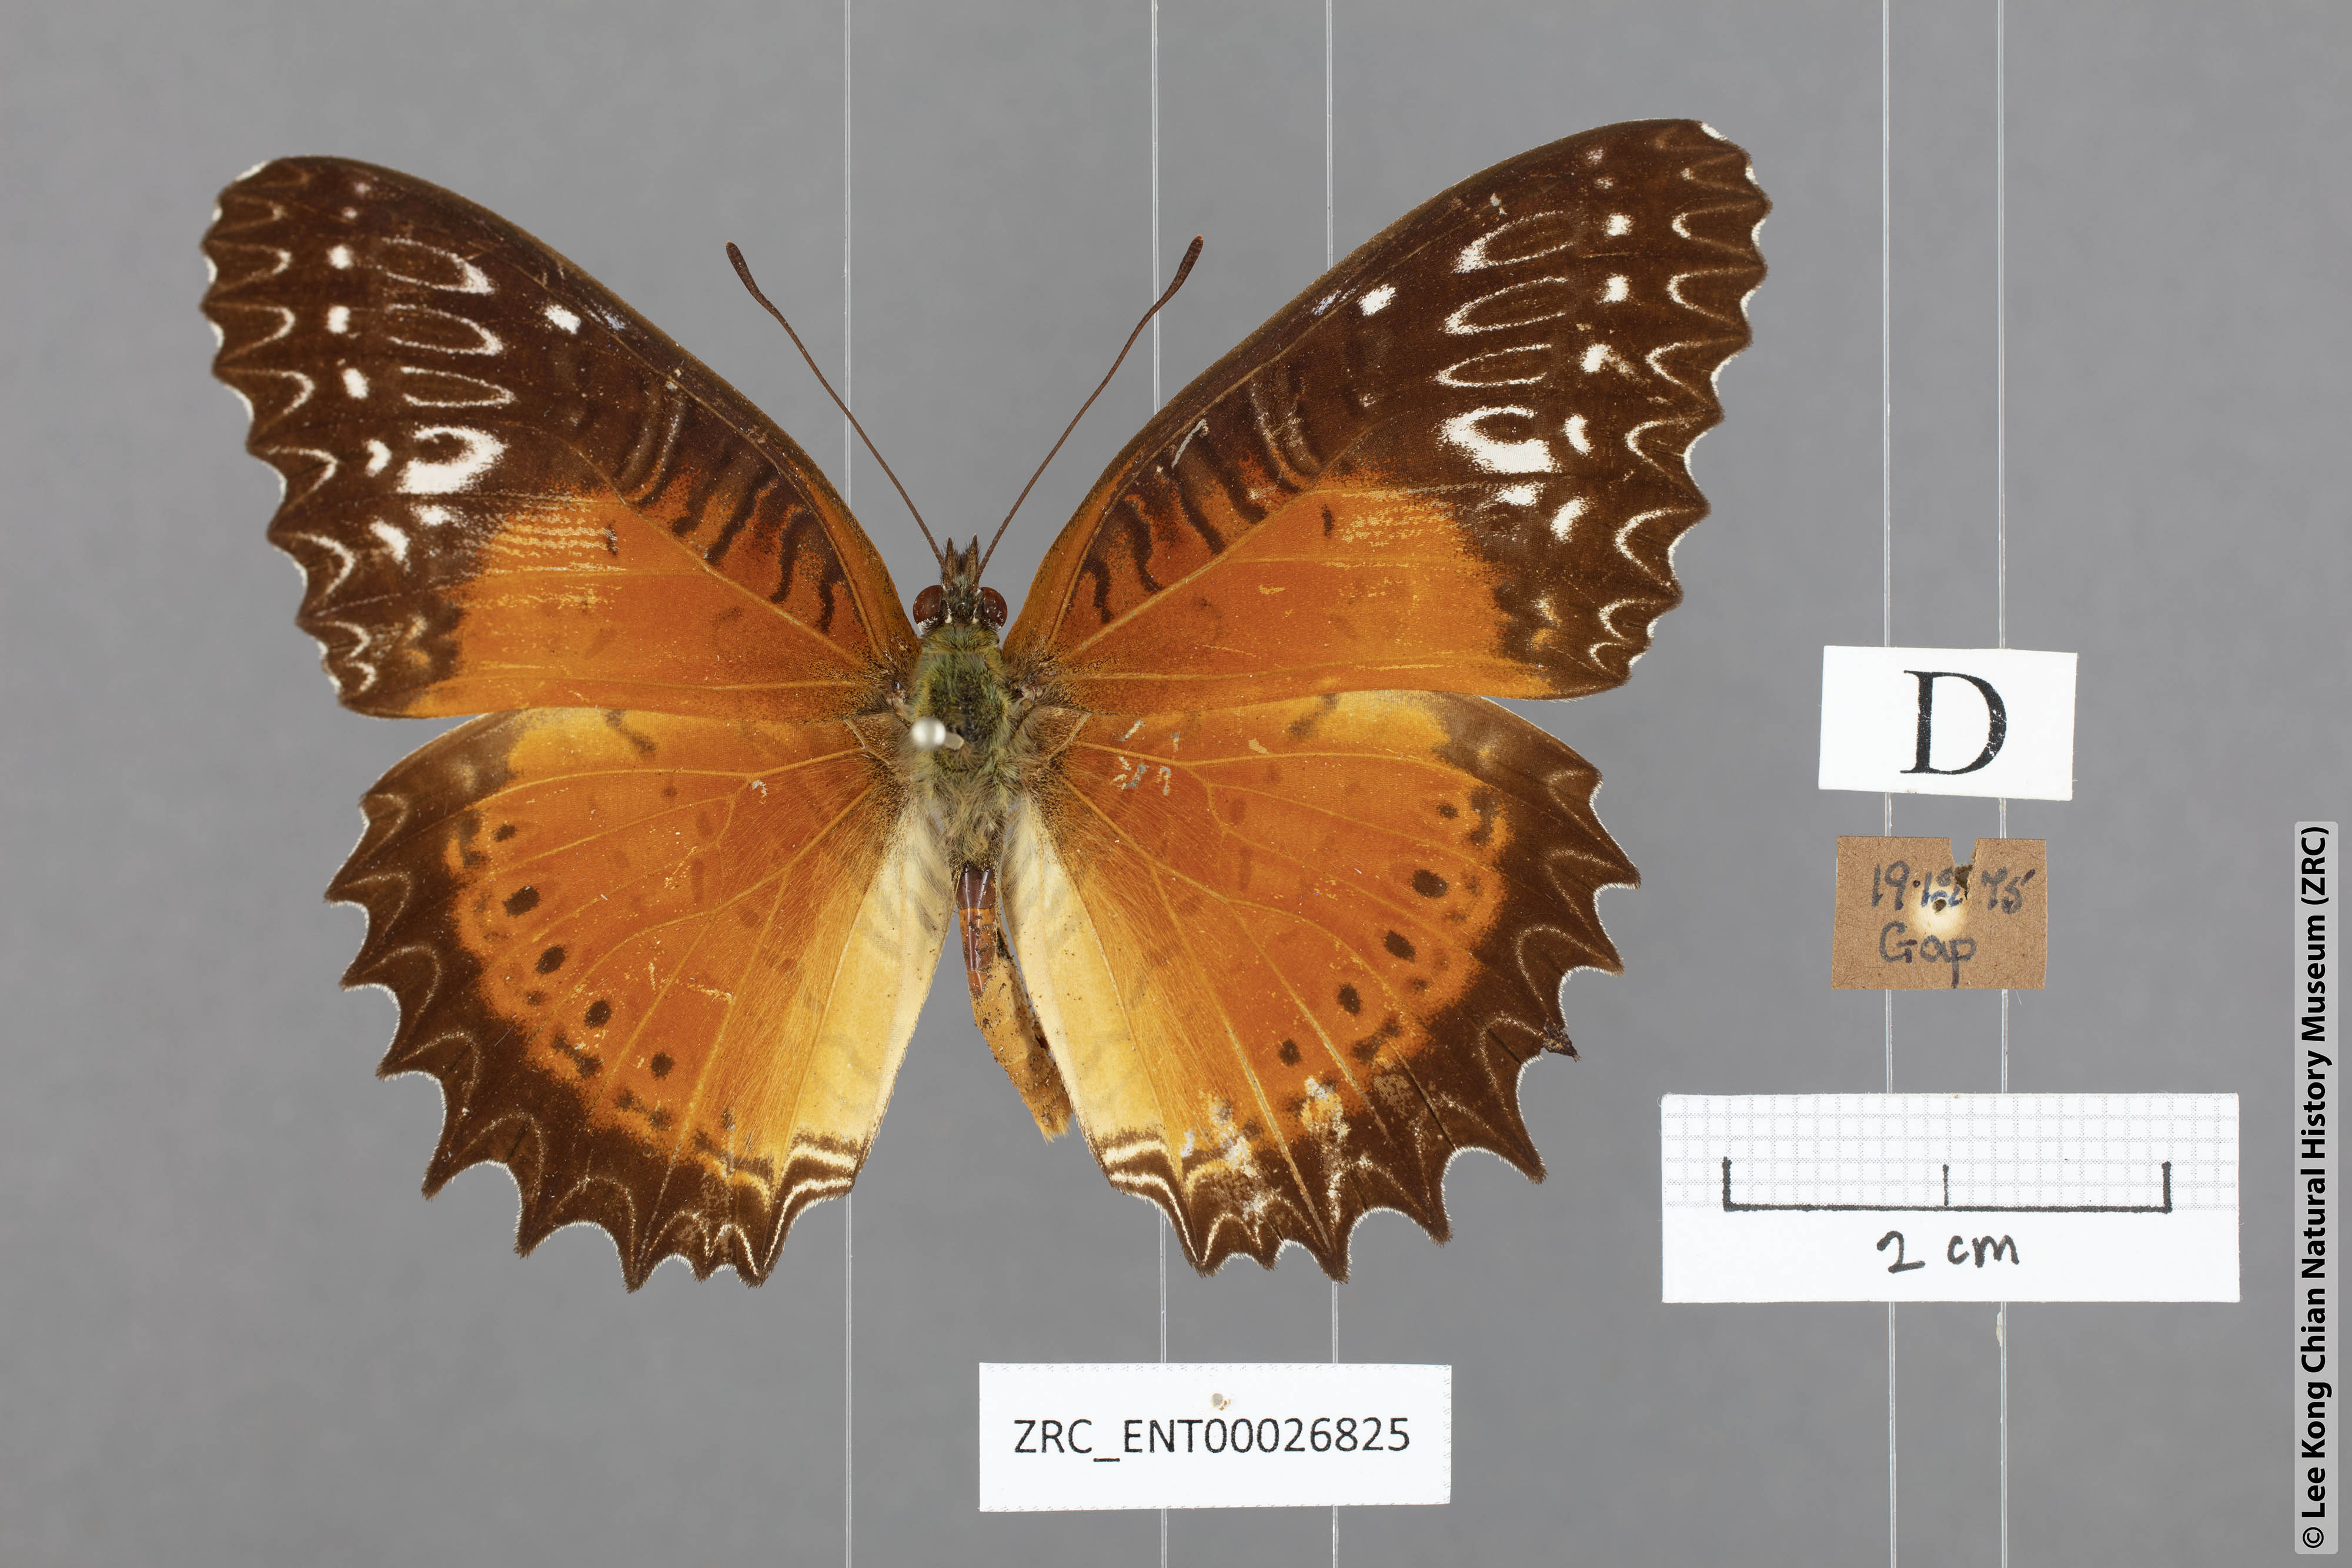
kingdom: Animalia
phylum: Arthropoda
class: Insecta
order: Lepidoptera
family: Nymphalidae
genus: Cethosia
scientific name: Cethosia biblis
